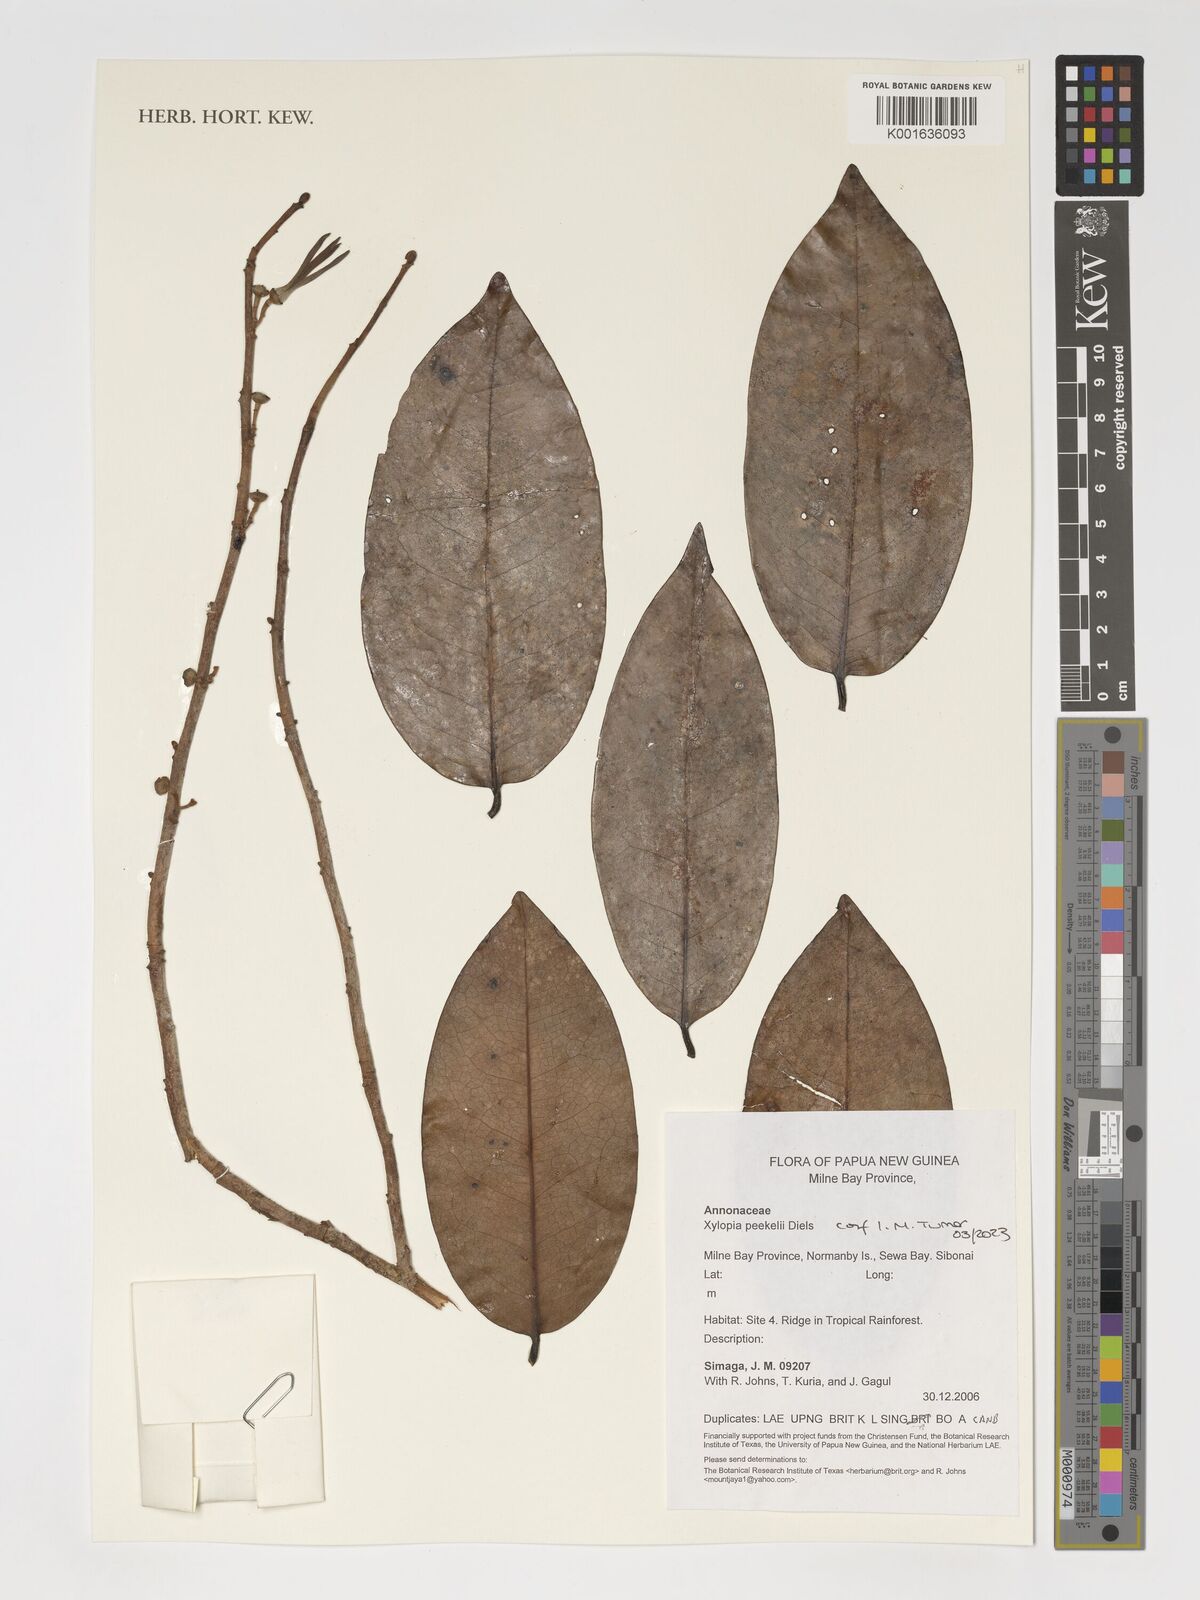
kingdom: Plantae
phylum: Tracheophyta
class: Magnoliopsida
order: Magnoliales
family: Annonaceae
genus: Xylopia
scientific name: Xylopia peekelii
